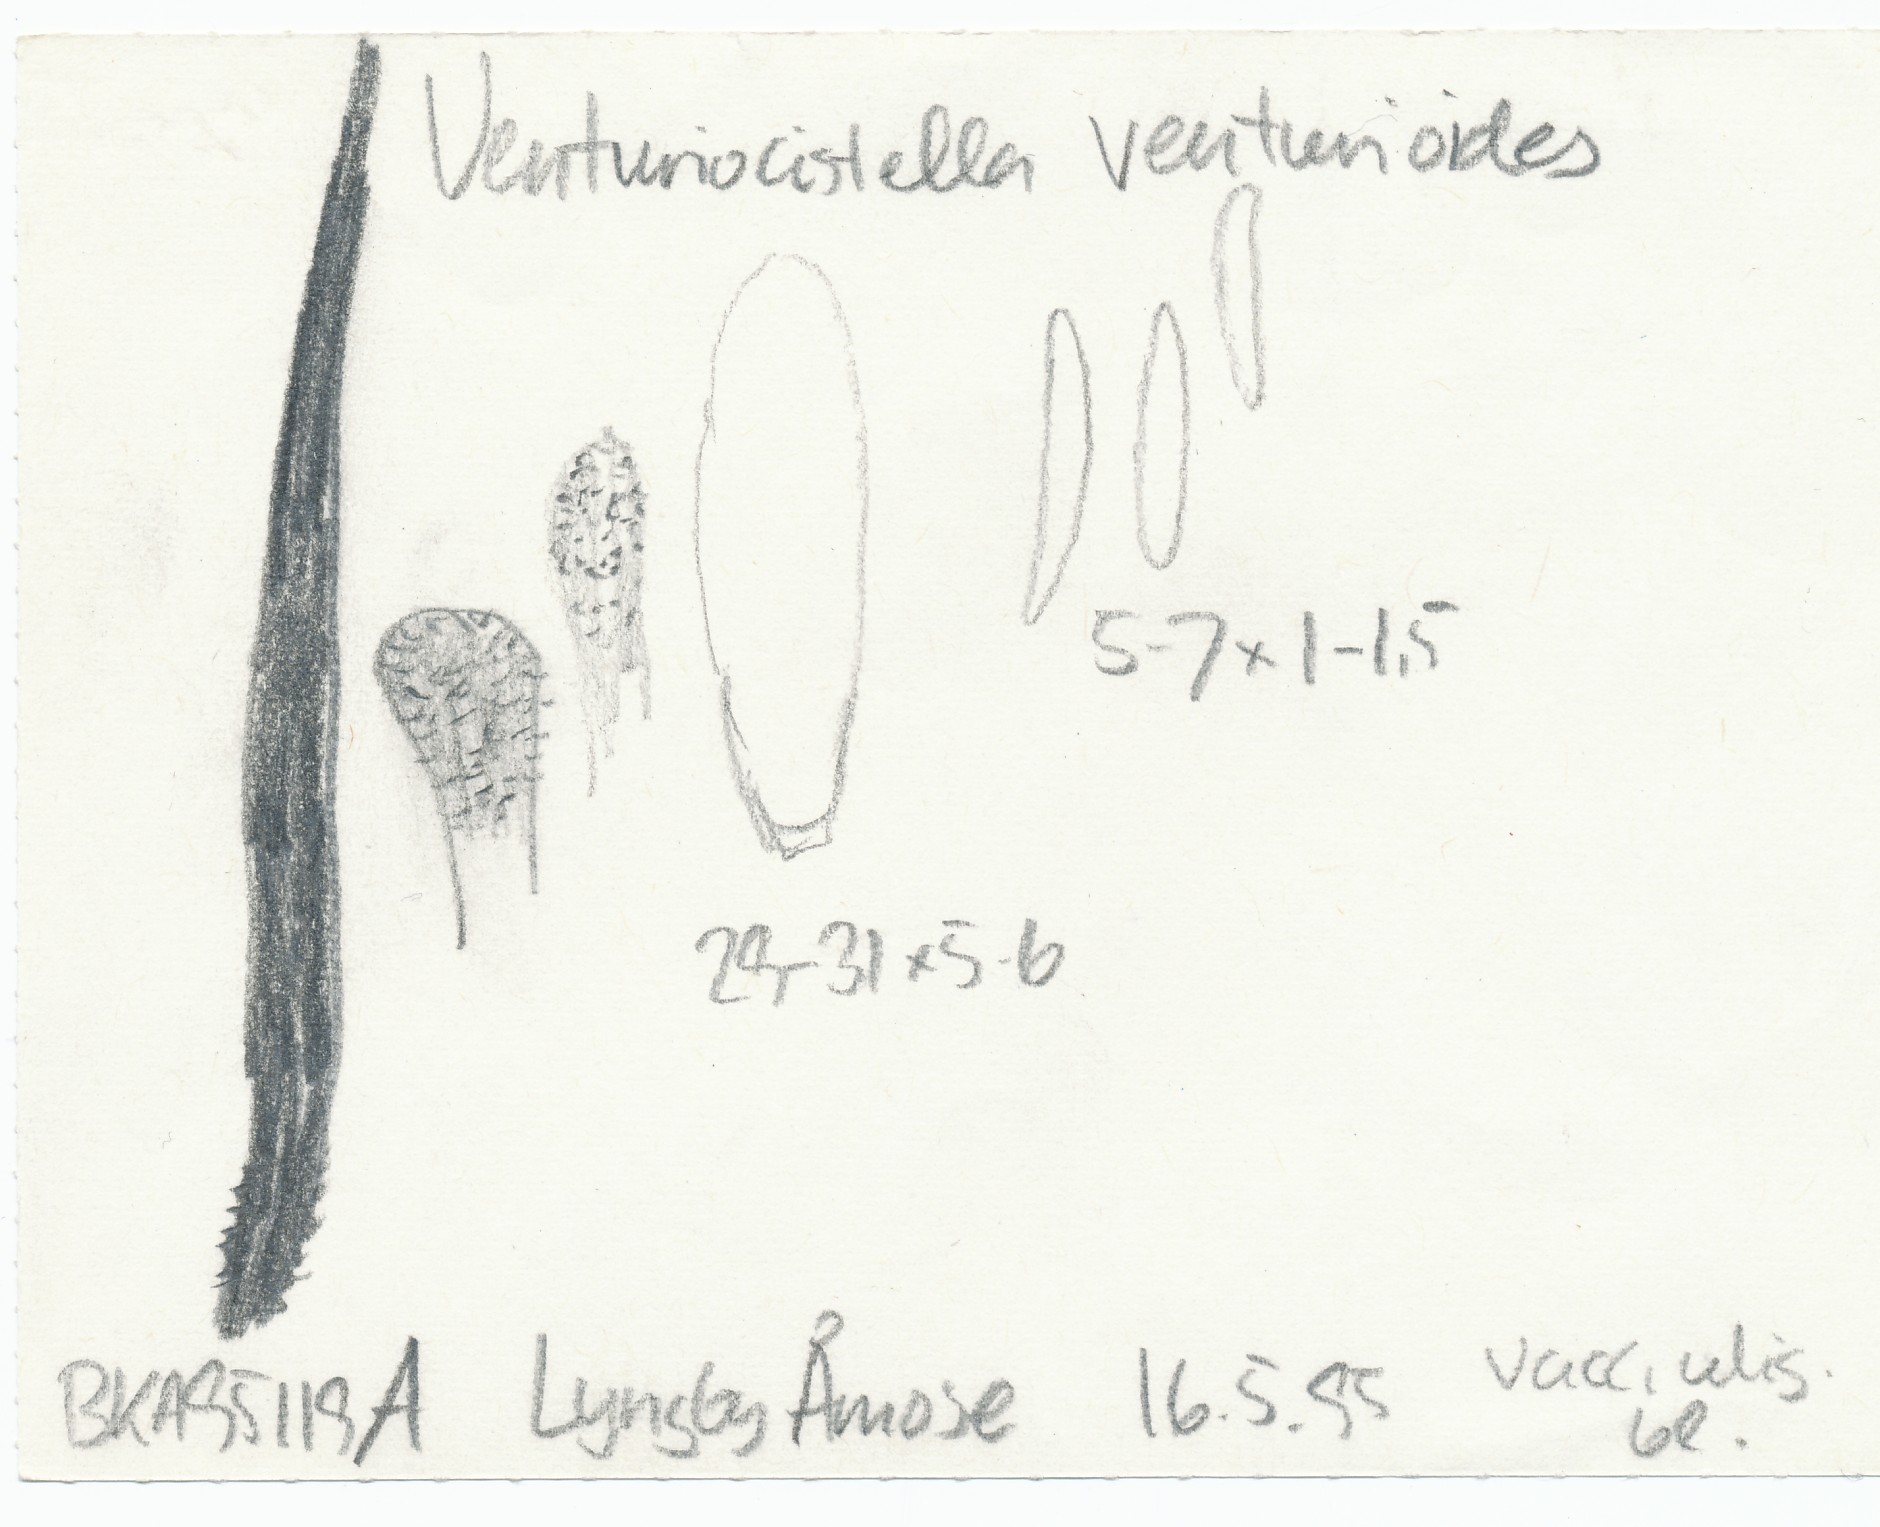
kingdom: Fungi
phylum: Ascomycota
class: Leotiomycetes
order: Helotiales
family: Lachnaceae
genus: Lachnum
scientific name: Lachnum rhytismatis
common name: blad-frynseskive
